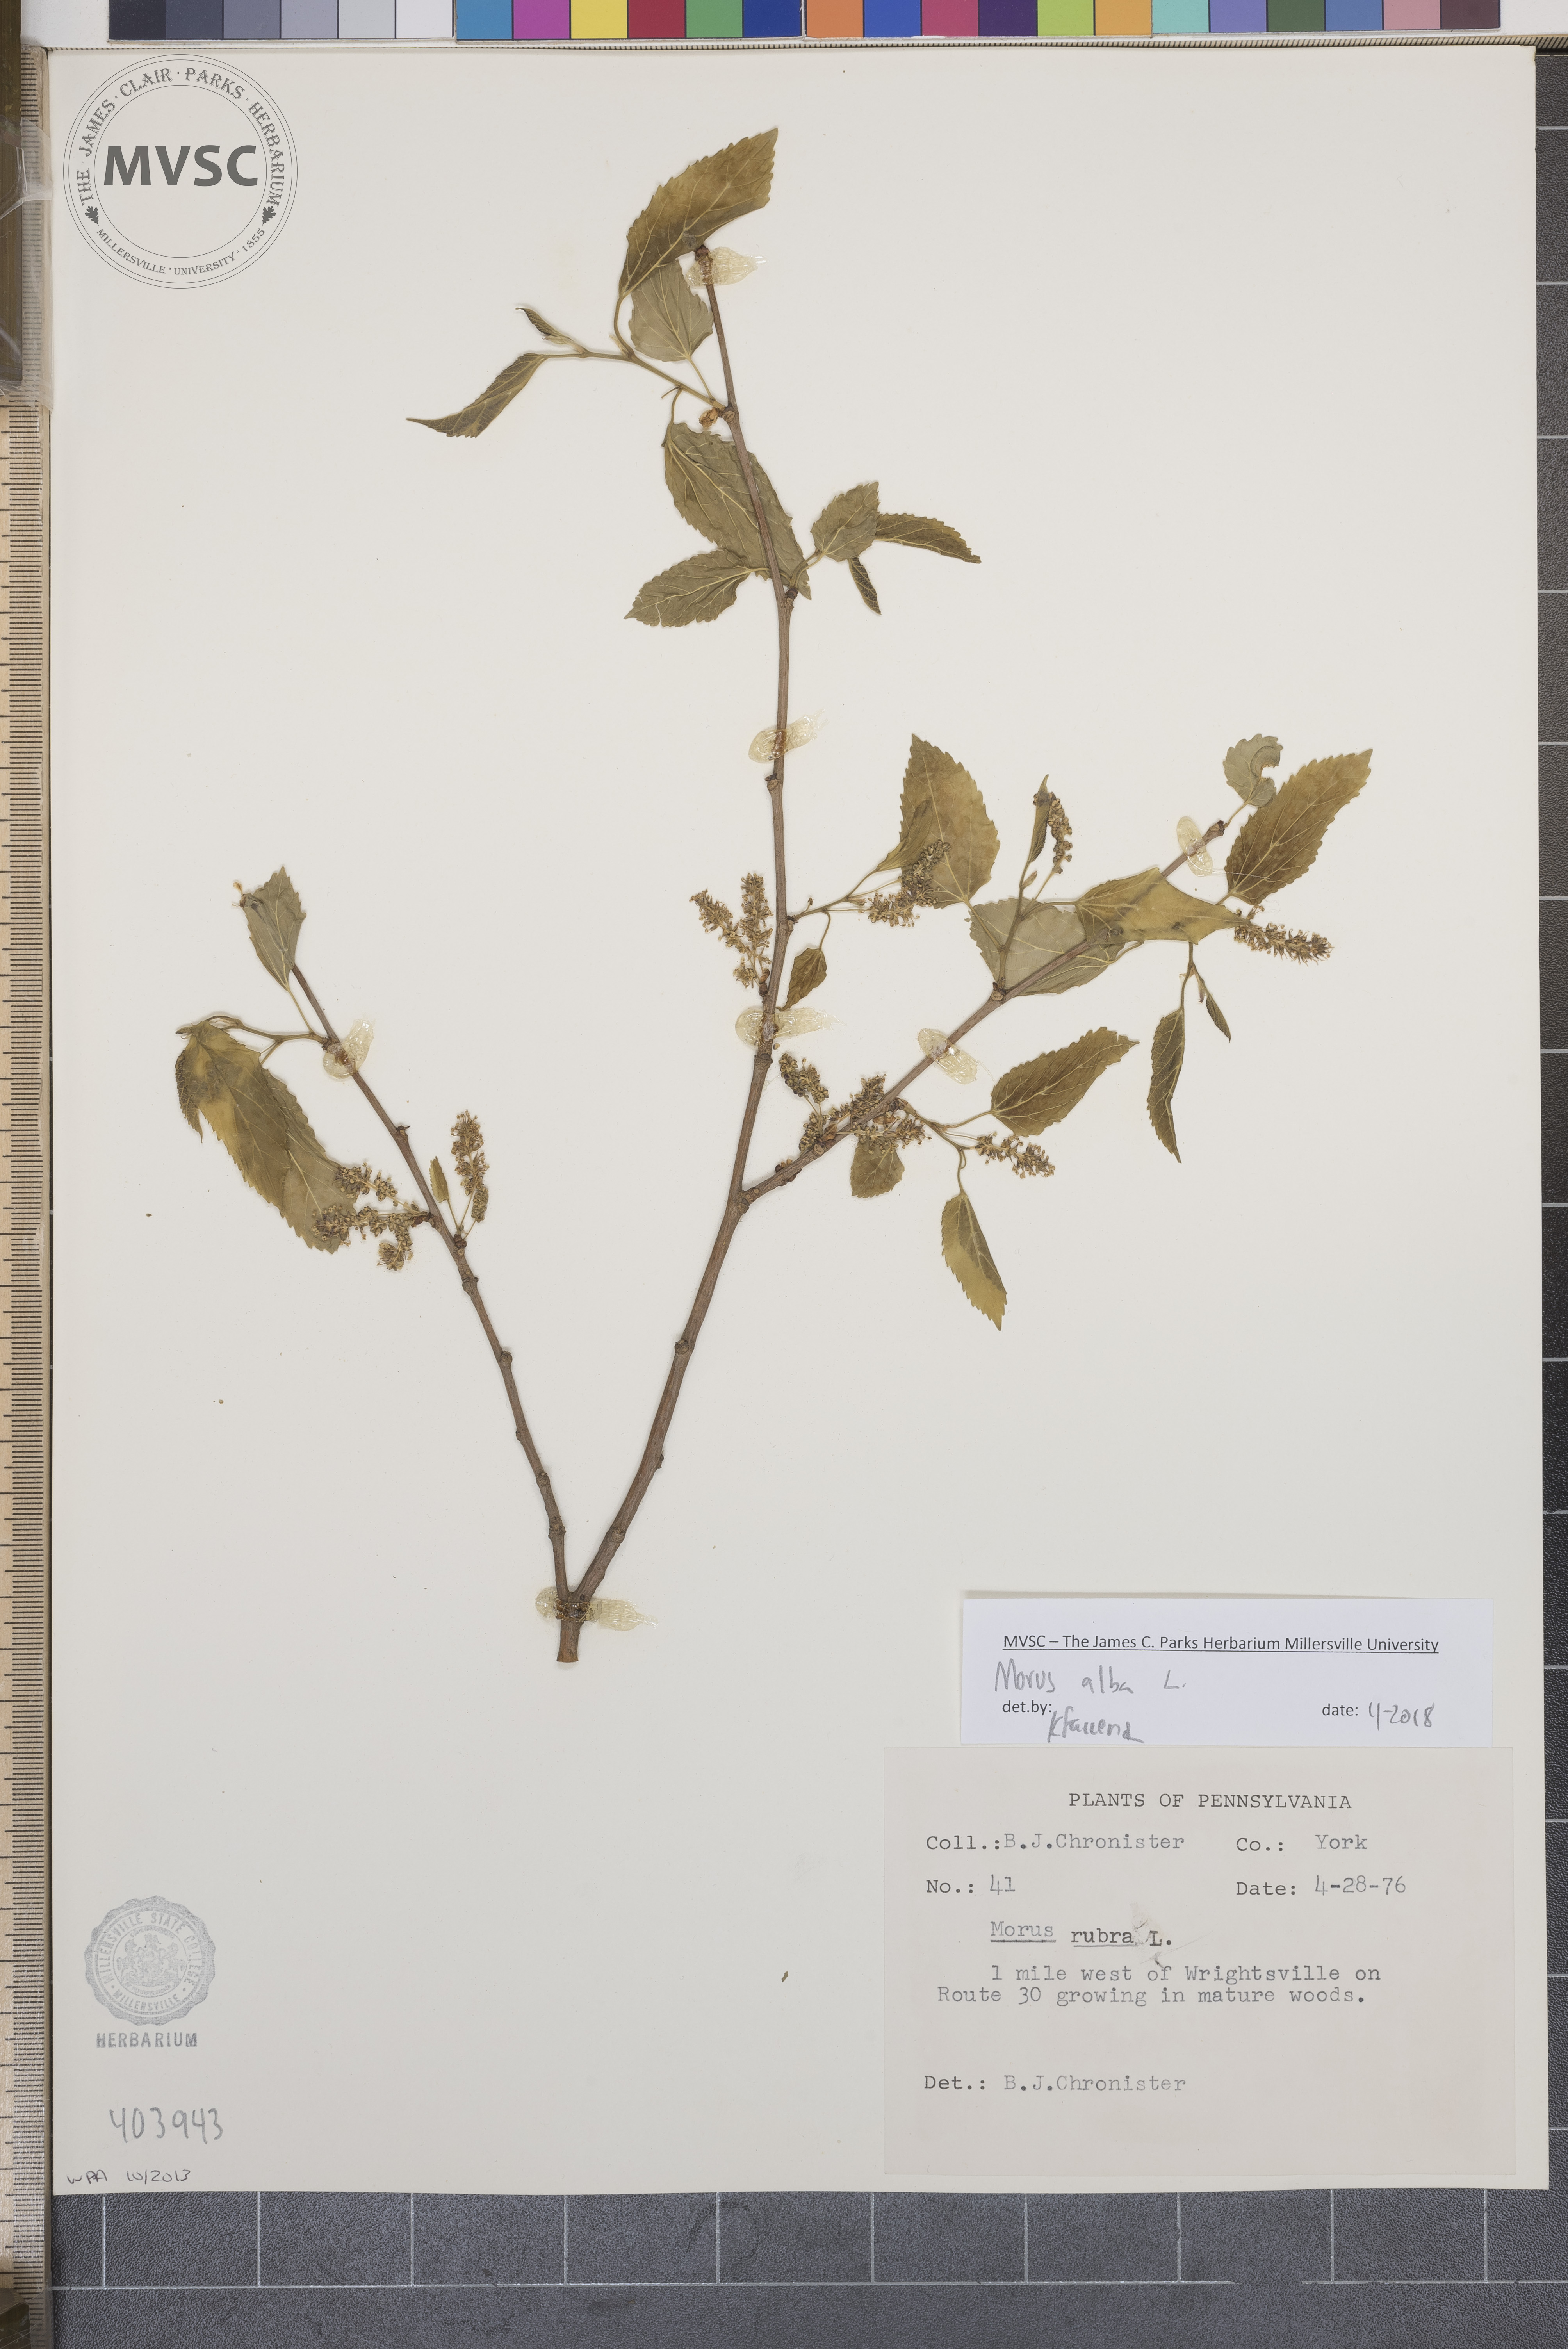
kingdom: Plantae
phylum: Tracheophyta
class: Magnoliopsida
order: Rosales
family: Moraceae
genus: Morus
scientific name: Morus alba
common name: White mulberry
